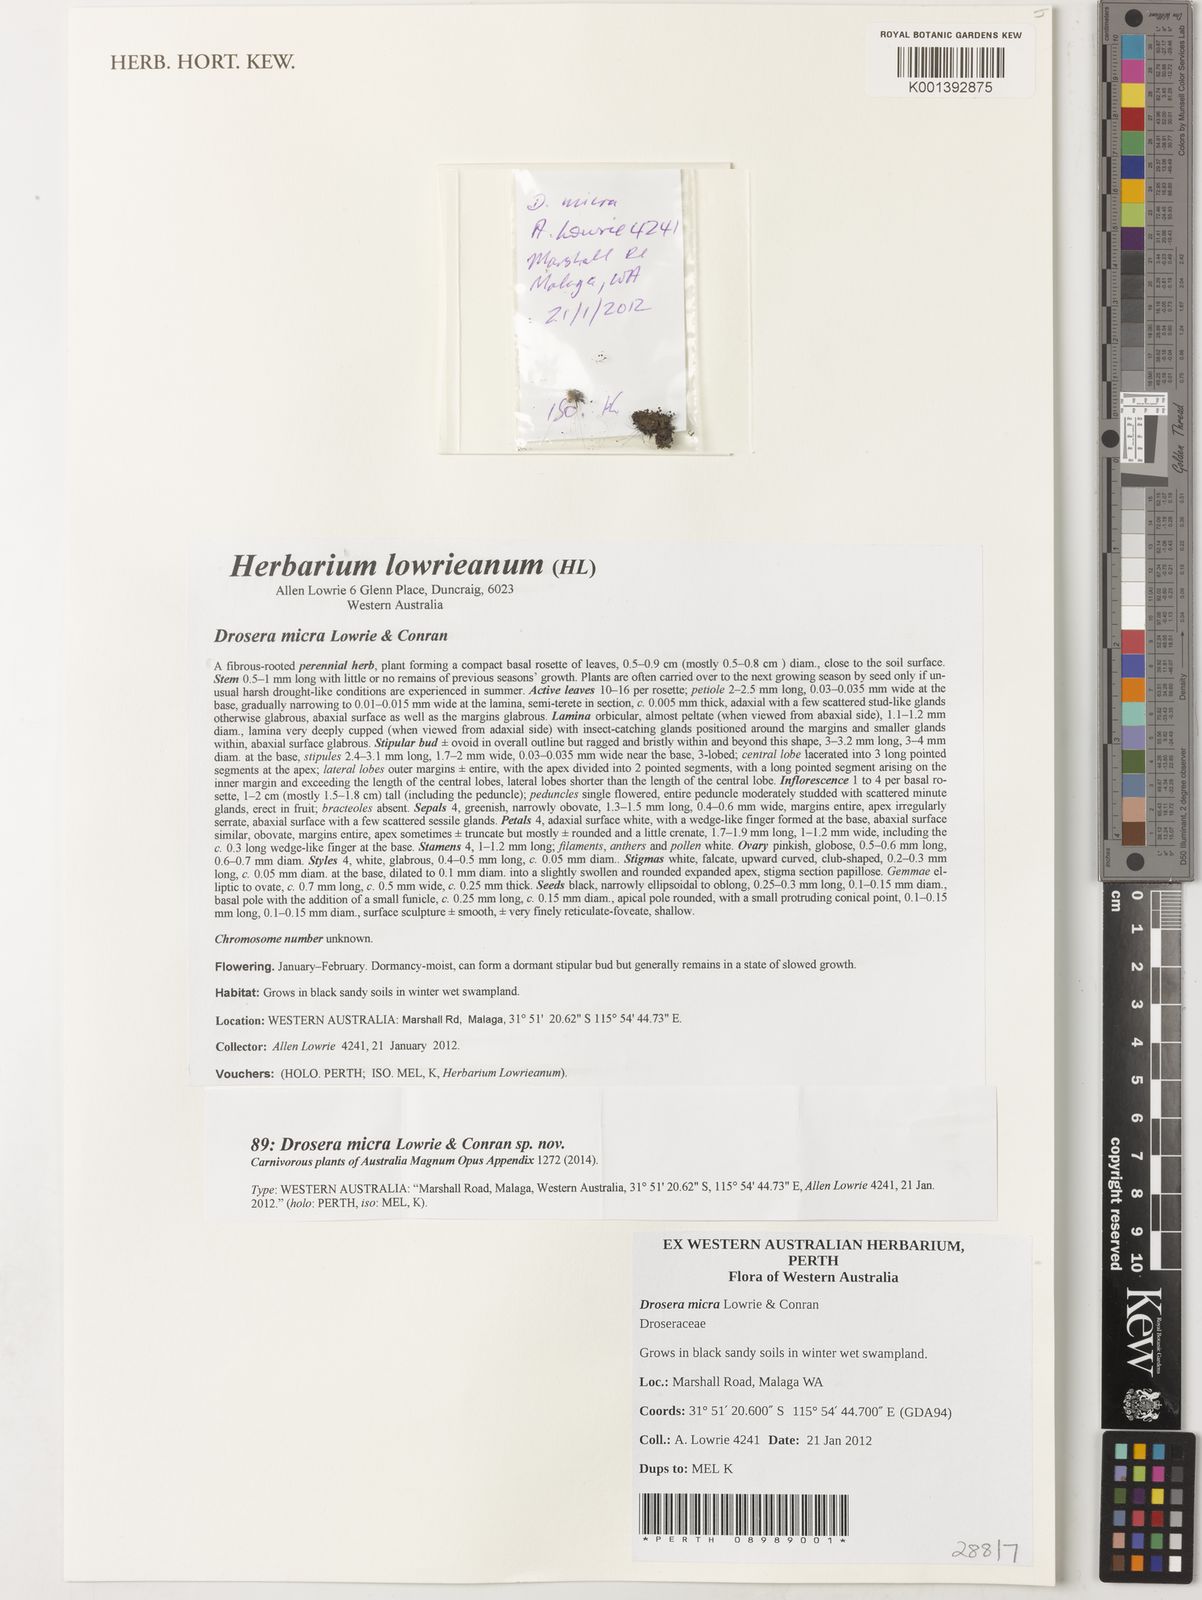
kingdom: Plantae
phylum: Tracheophyta
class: Magnoliopsida
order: Caryophyllales
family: Droseraceae
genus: Drosera
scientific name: Drosera micra
